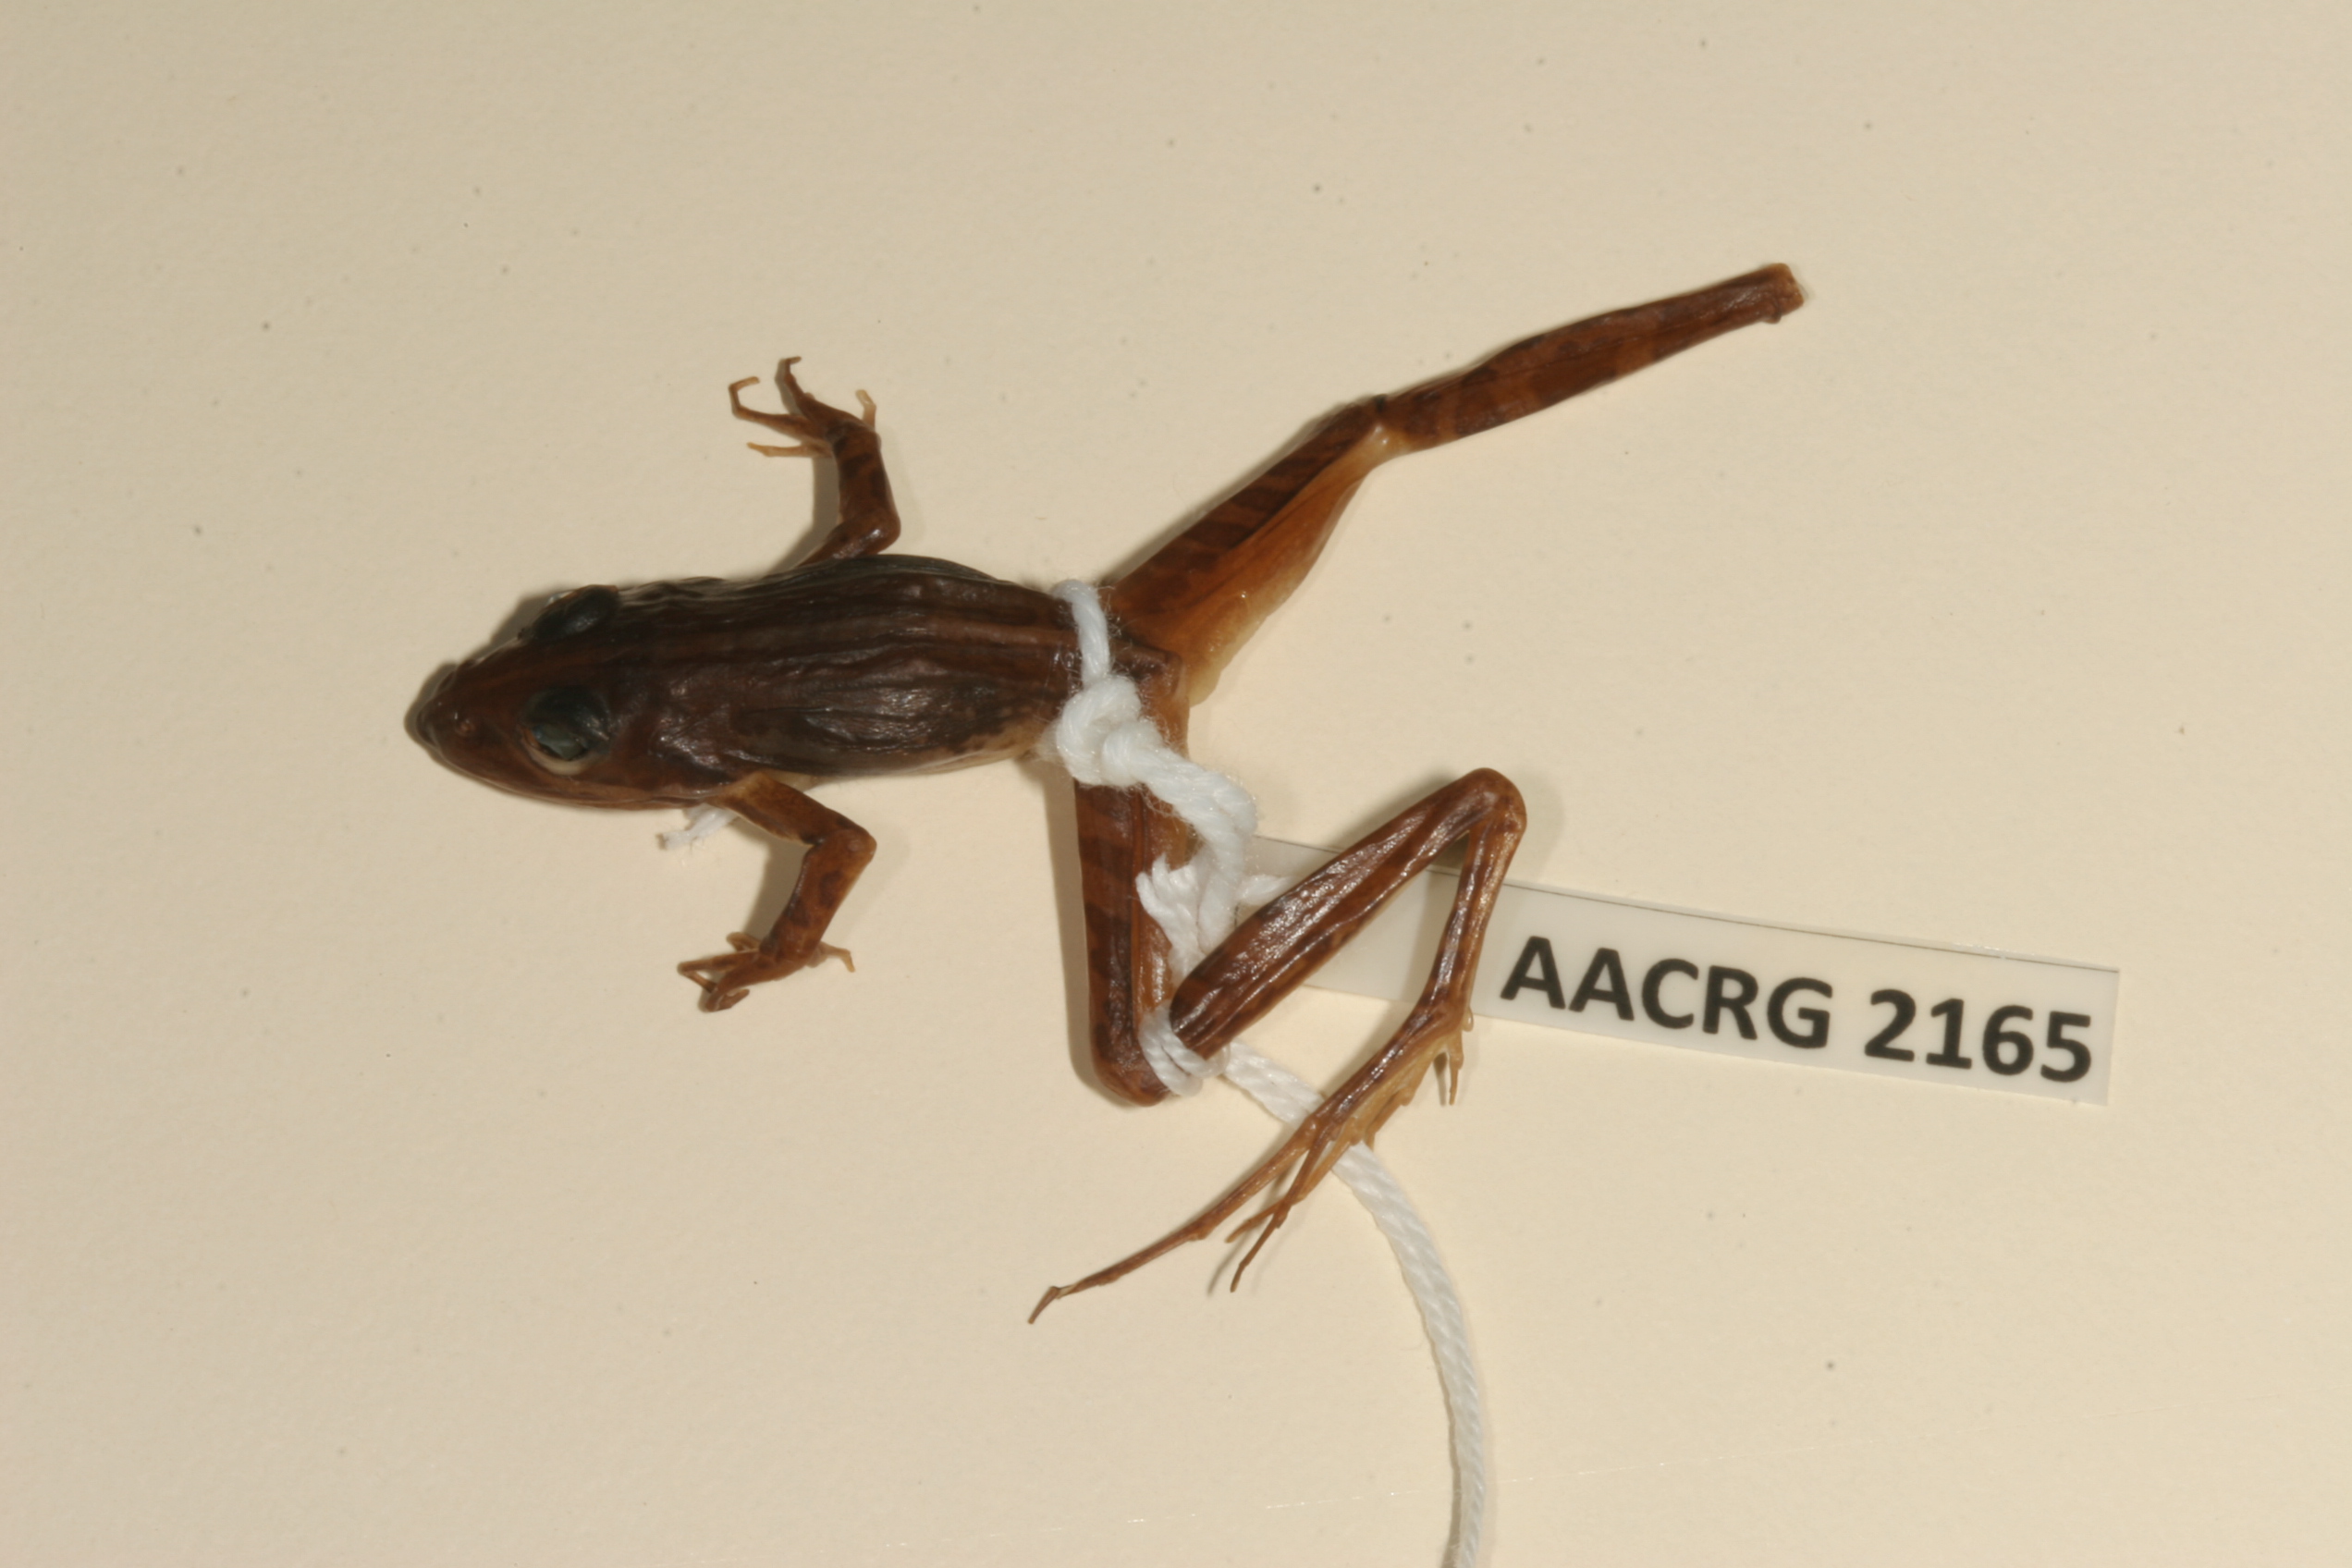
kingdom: Animalia
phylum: Chordata
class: Amphibia
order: Anura
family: Pyxicephalidae
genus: Strongylopus
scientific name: Strongylopus bonaespei
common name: Banded stream frog
